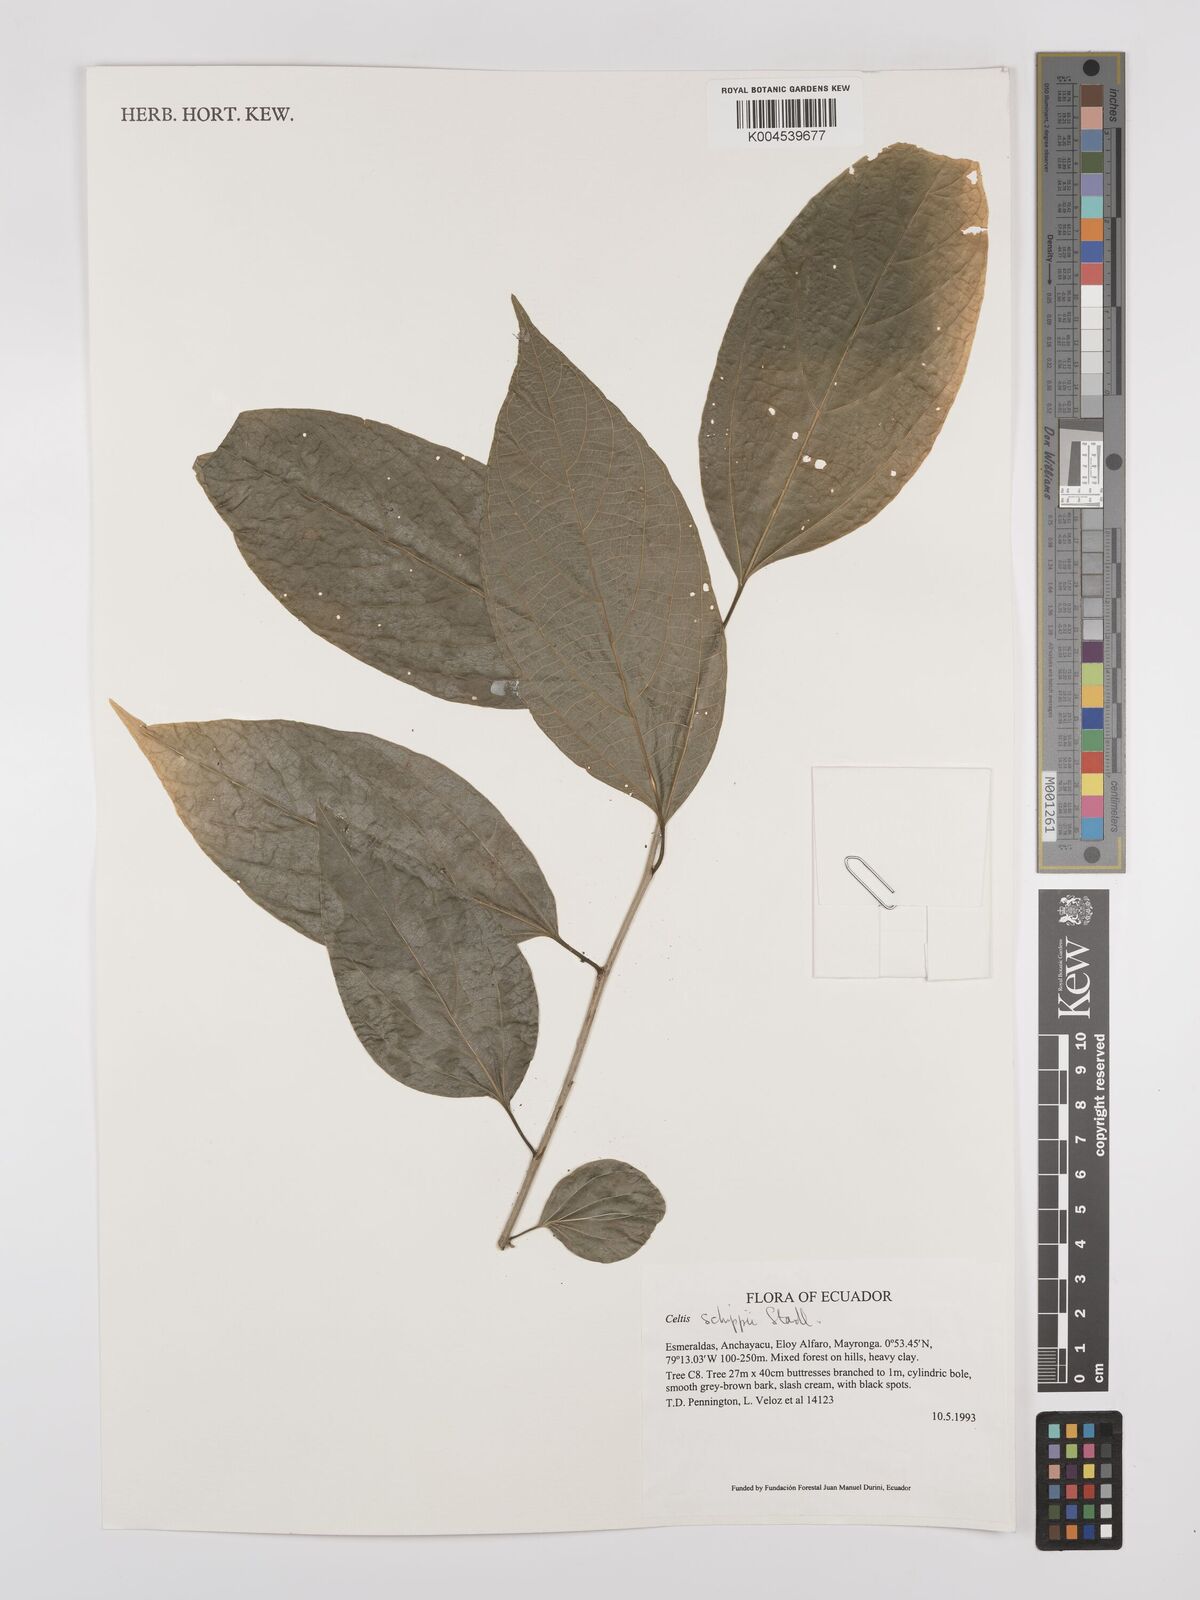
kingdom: Plantae
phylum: Tracheophyta
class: Magnoliopsida
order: Rosales
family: Cannabaceae
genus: Celtis
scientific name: Celtis schippii
